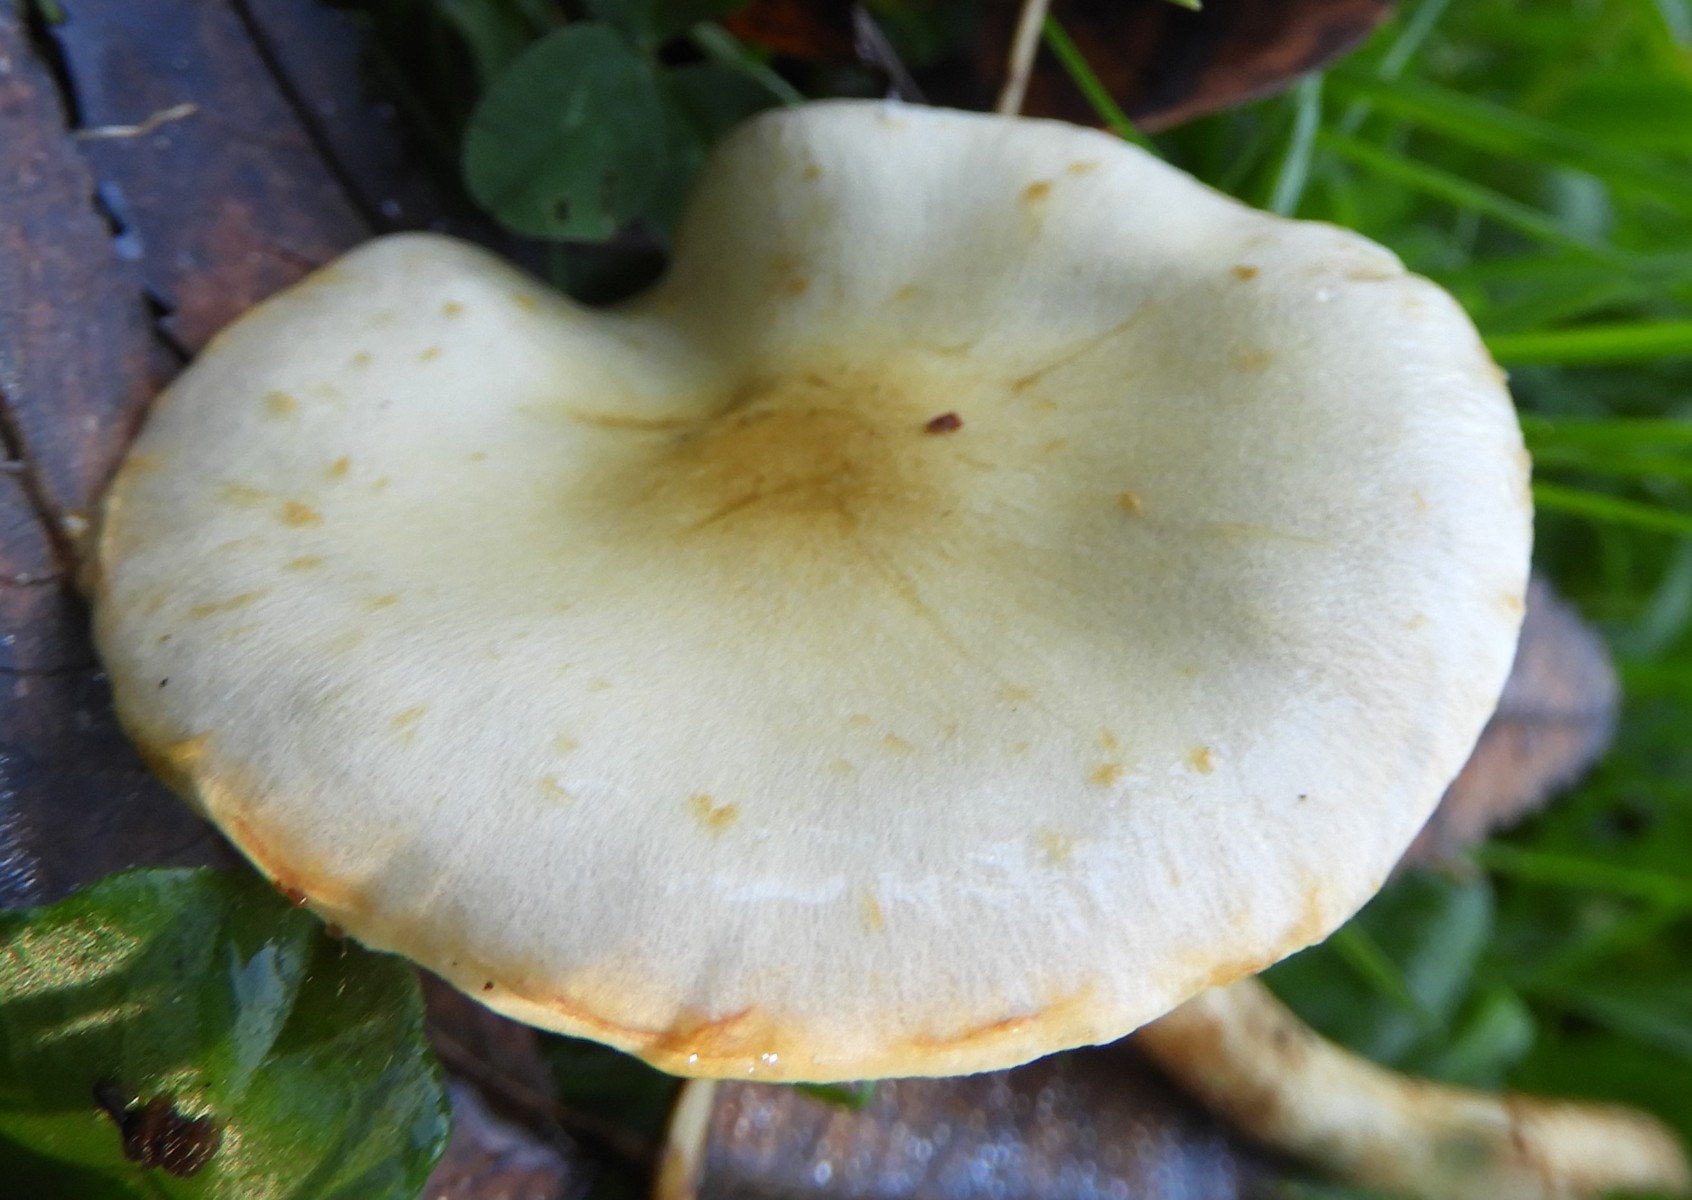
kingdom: Fungi
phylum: Basidiomycota
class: Agaricomycetes
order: Agaricales
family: Strophariaceae
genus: Pholiota
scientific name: Pholiota gummosa
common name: grøngul skælhat
